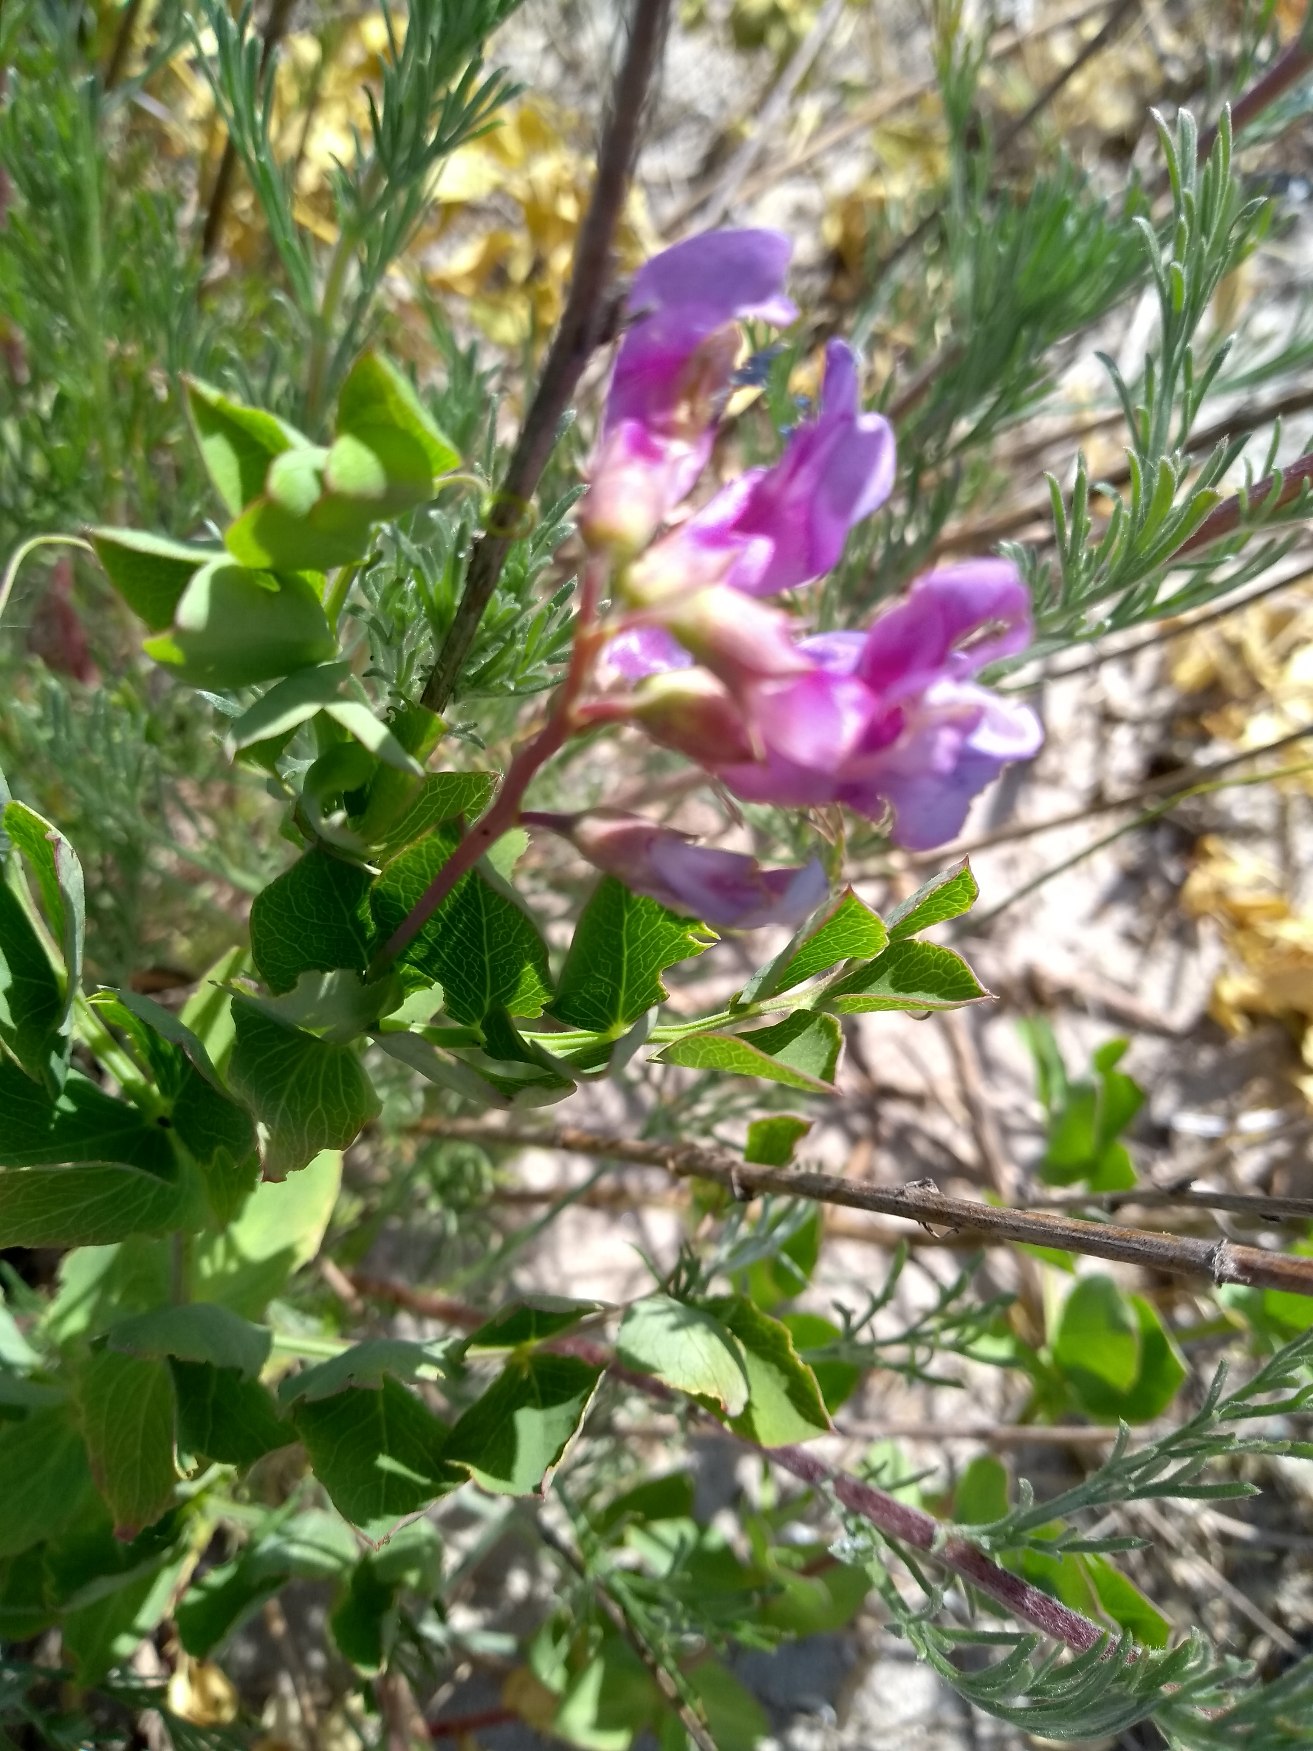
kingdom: Plantae
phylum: Tracheophyta
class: Magnoliopsida
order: Fabales
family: Fabaceae
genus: Lathyrus
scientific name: Lathyrus japonicus
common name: Strand-fladbælg
